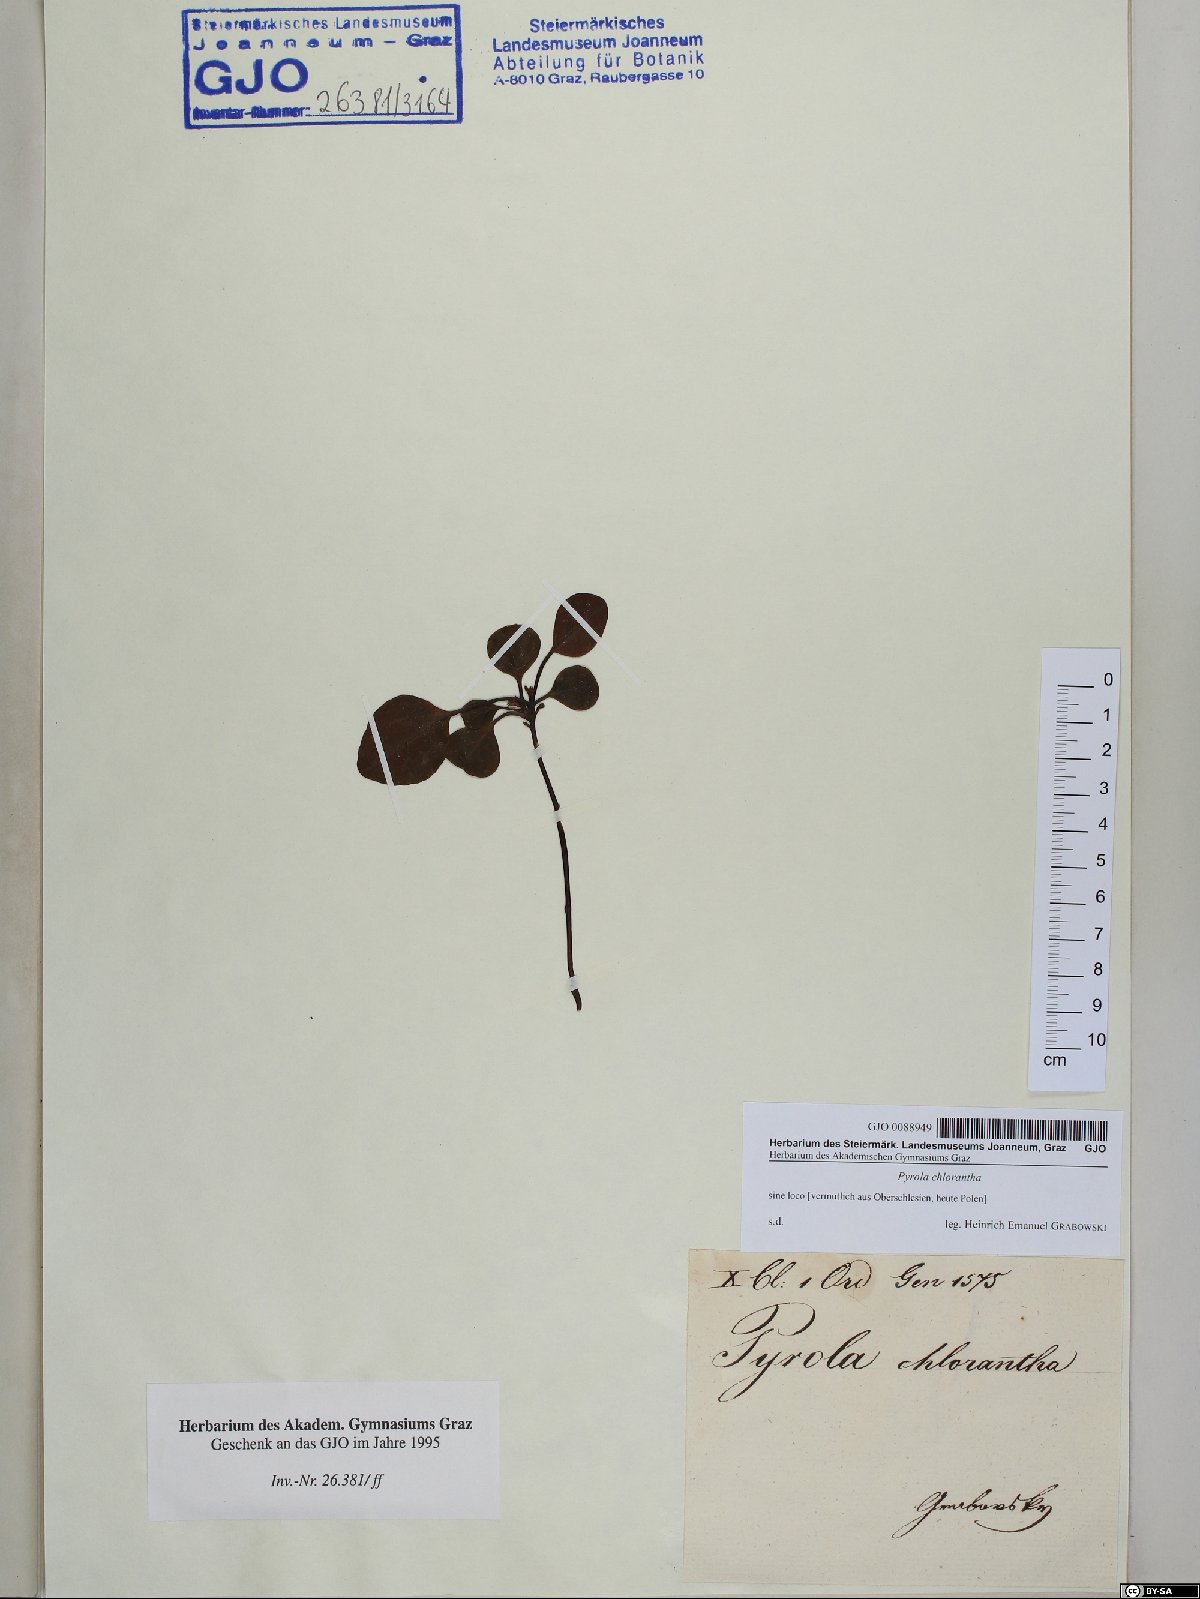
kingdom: Plantae
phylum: Tracheophyta
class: Magnoliopsida
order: Ericales
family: Ericaceae
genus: Pyrola
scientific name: Pyrola chlorantha
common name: Green wintergreen
